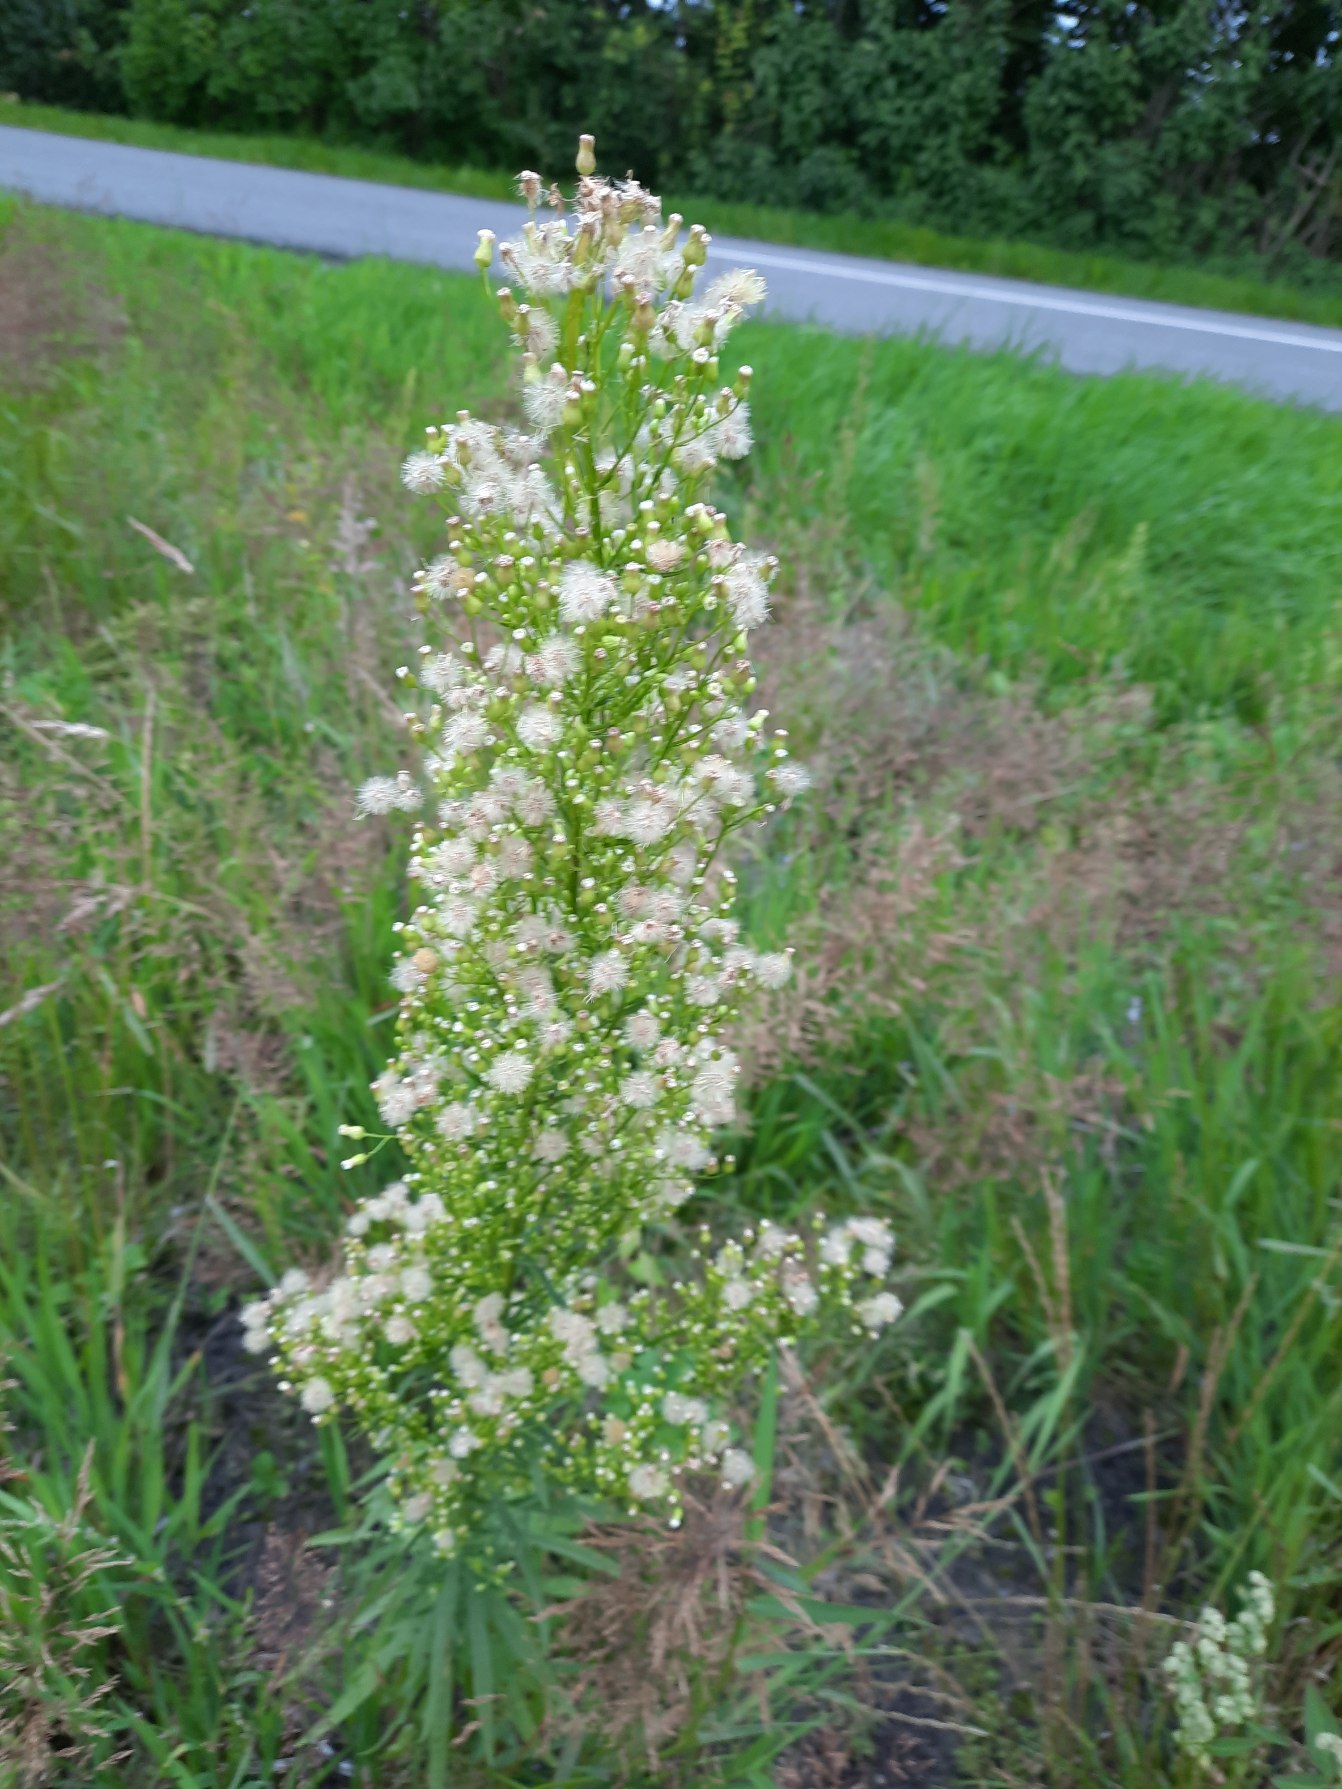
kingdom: Plantae
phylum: Tracheophyta
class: Magnoliopsida
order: Asterales
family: Asteraceae
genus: Erigeron
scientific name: Erigeron canadensis
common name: Kanadisk bakkestjerne
